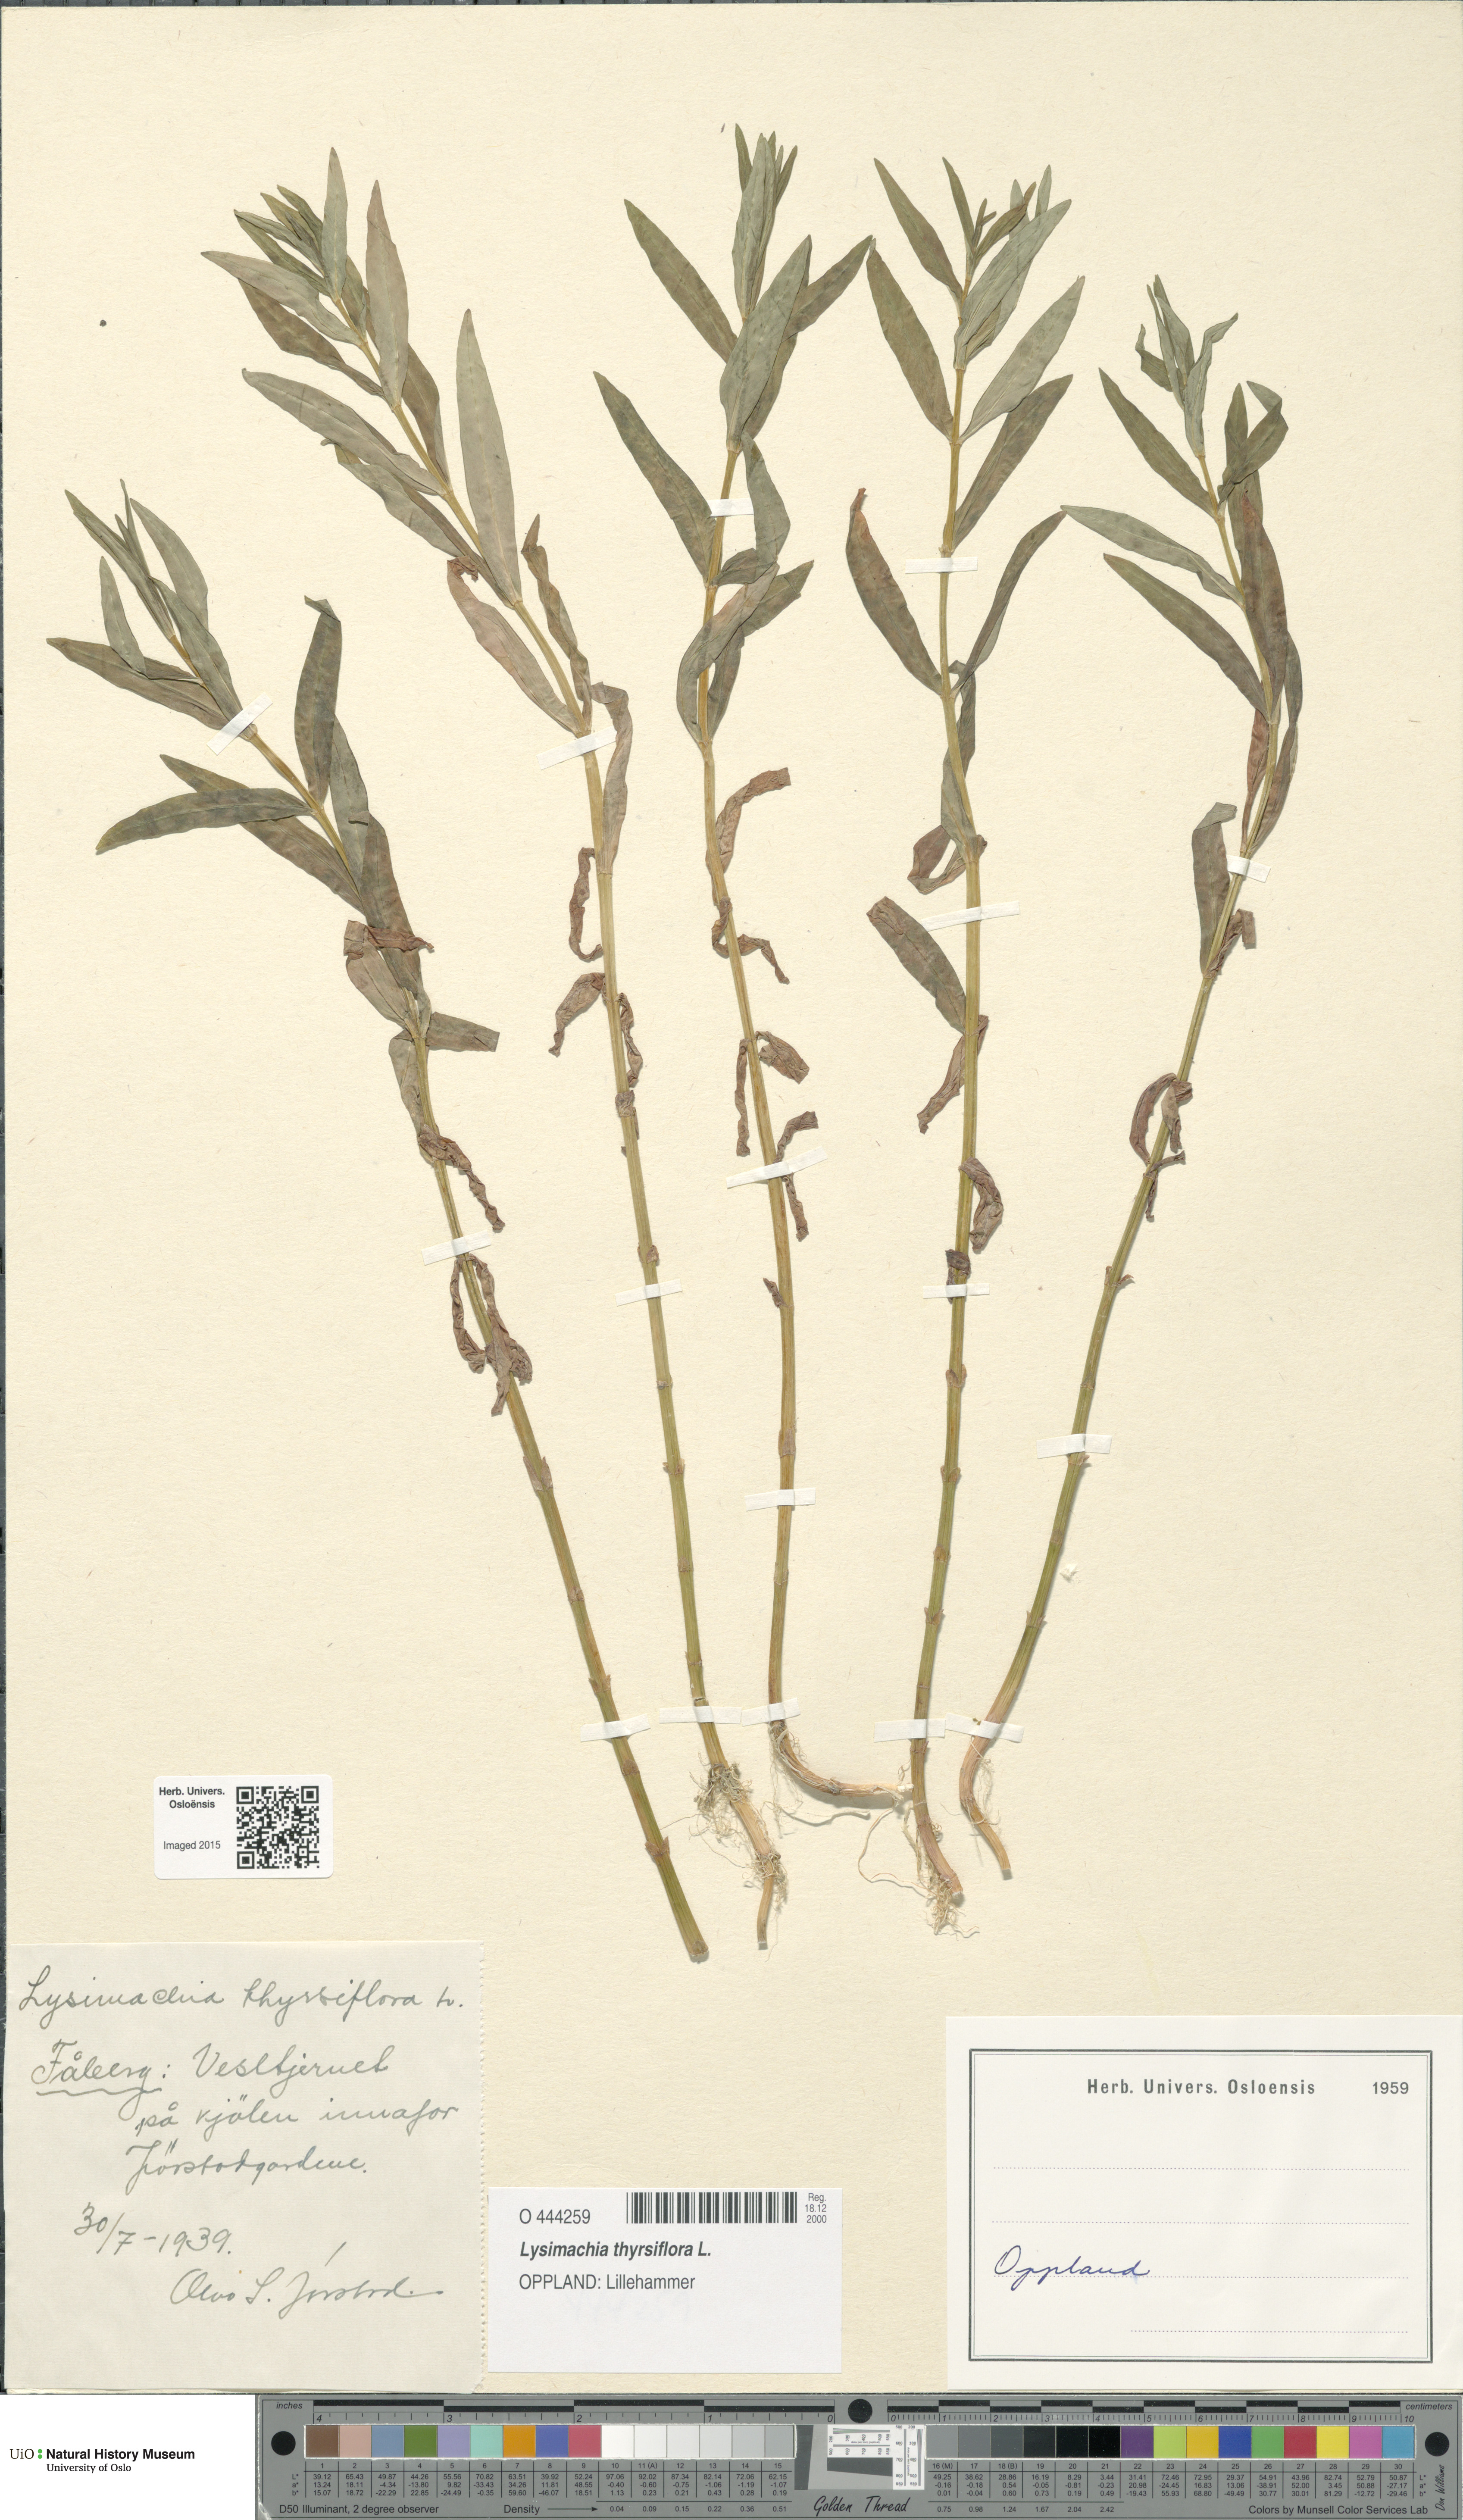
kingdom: Plantae
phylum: Tracheophyta
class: Magnoliopsida
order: Ericales
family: Primulaceae
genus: Lysimachia
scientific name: Lysimachia thyrsiflora
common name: Tufted loosestrife
